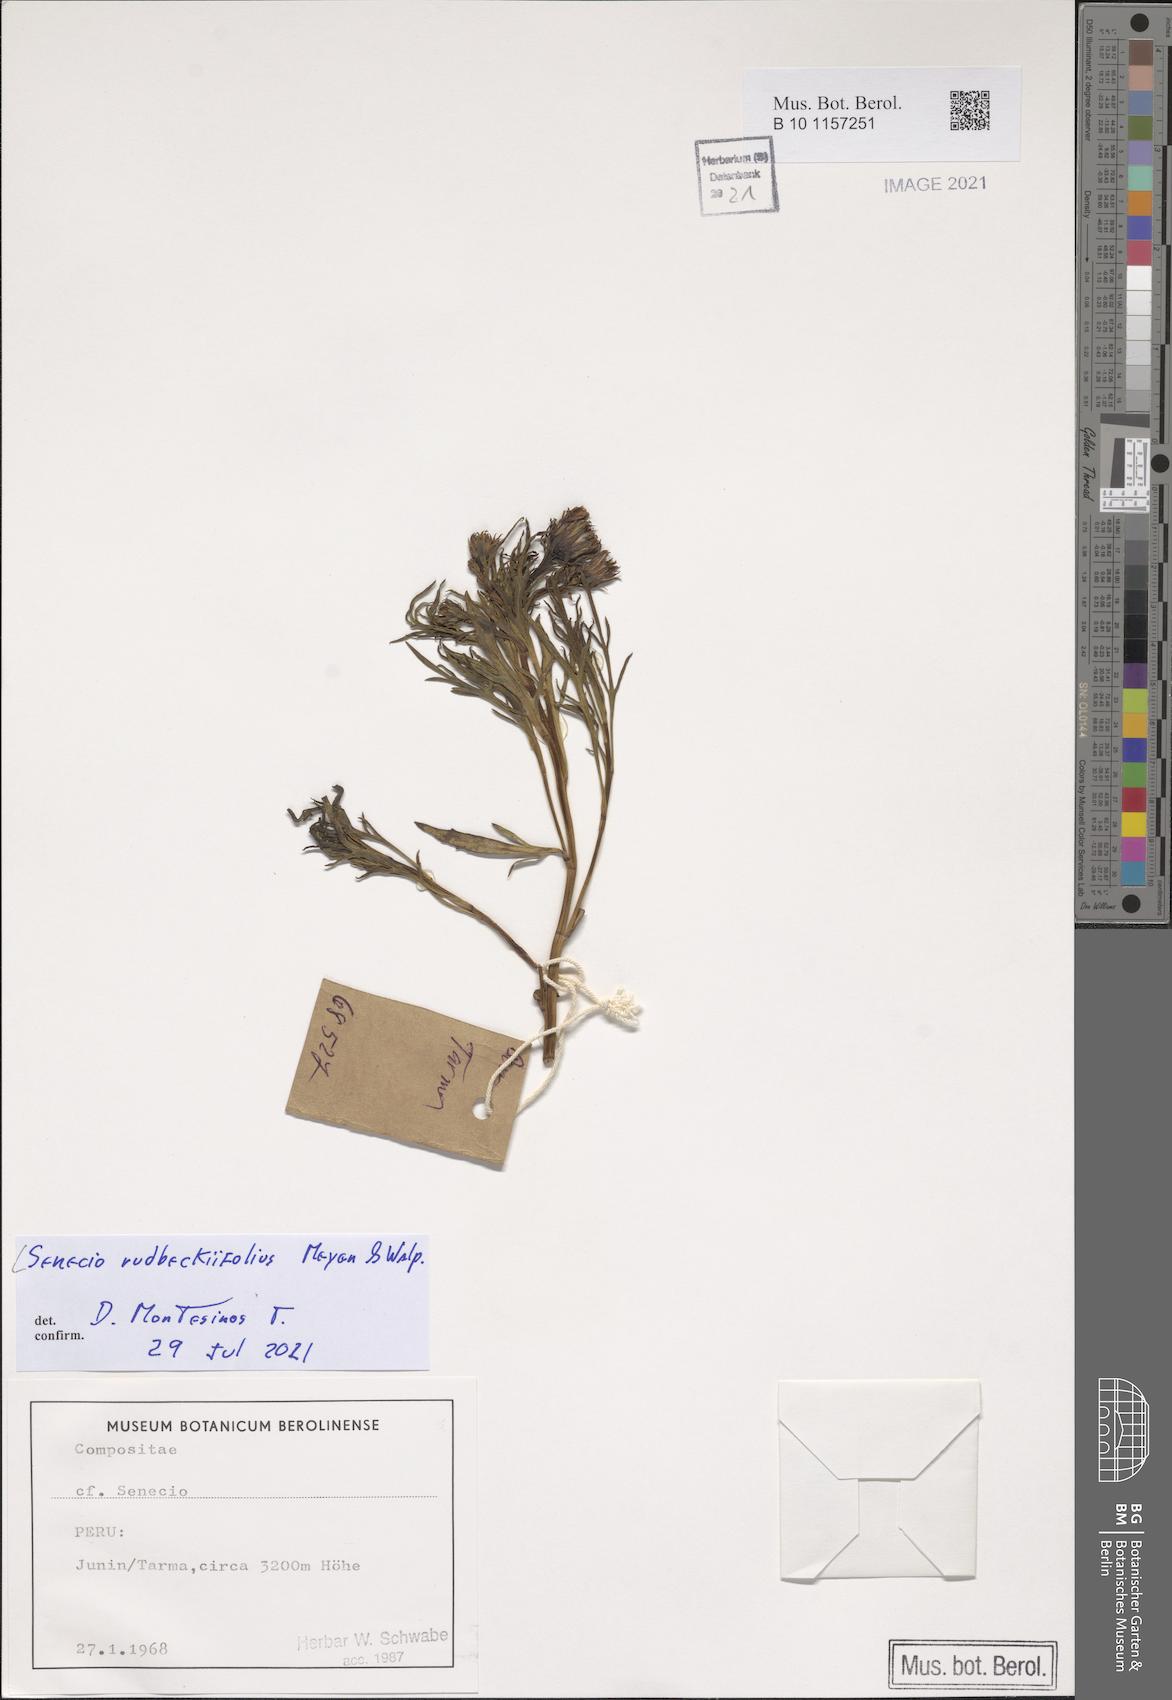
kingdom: Plantae
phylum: Tracheophyta
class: Magnoliopsida
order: Asterales
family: Asteraceae
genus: Senecio
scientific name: Senecio rudbeckiifolius
